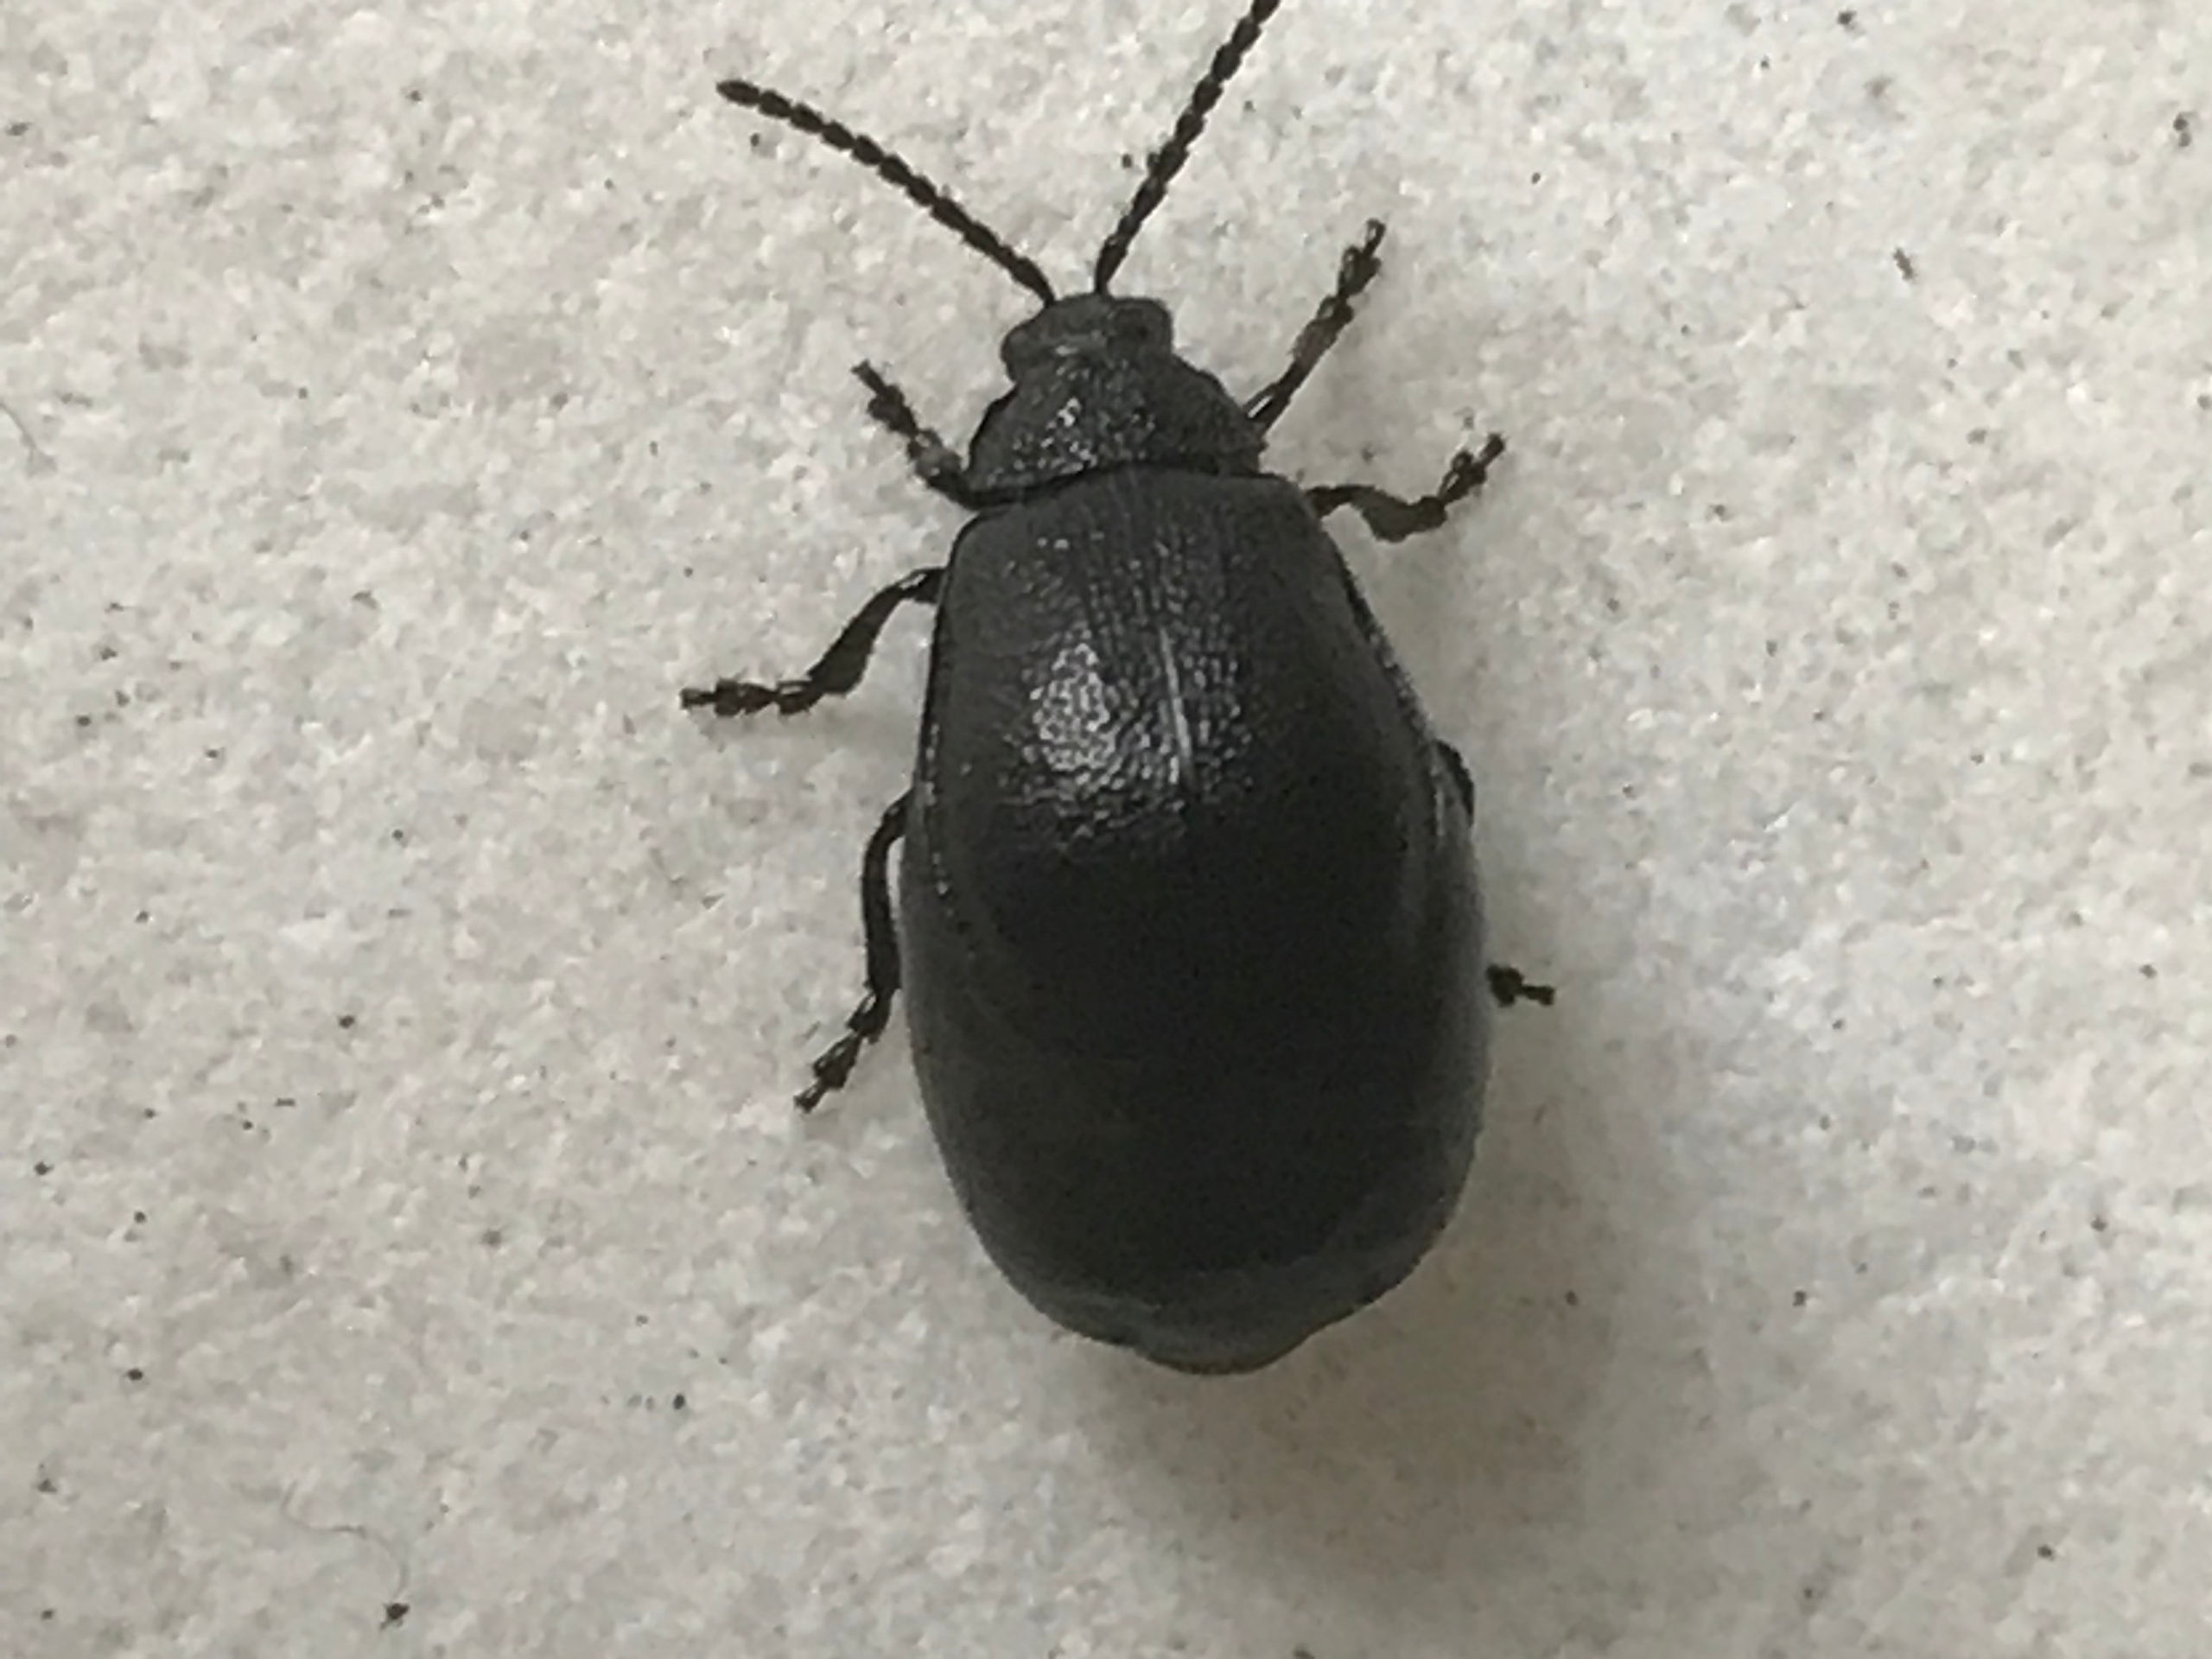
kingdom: Animalia
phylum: Arthropoda
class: Insecta
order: Coleoptera
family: Chrysomelidae
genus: Galeruca
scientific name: Galeruca tanaceti
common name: Rejnfanbladbille
